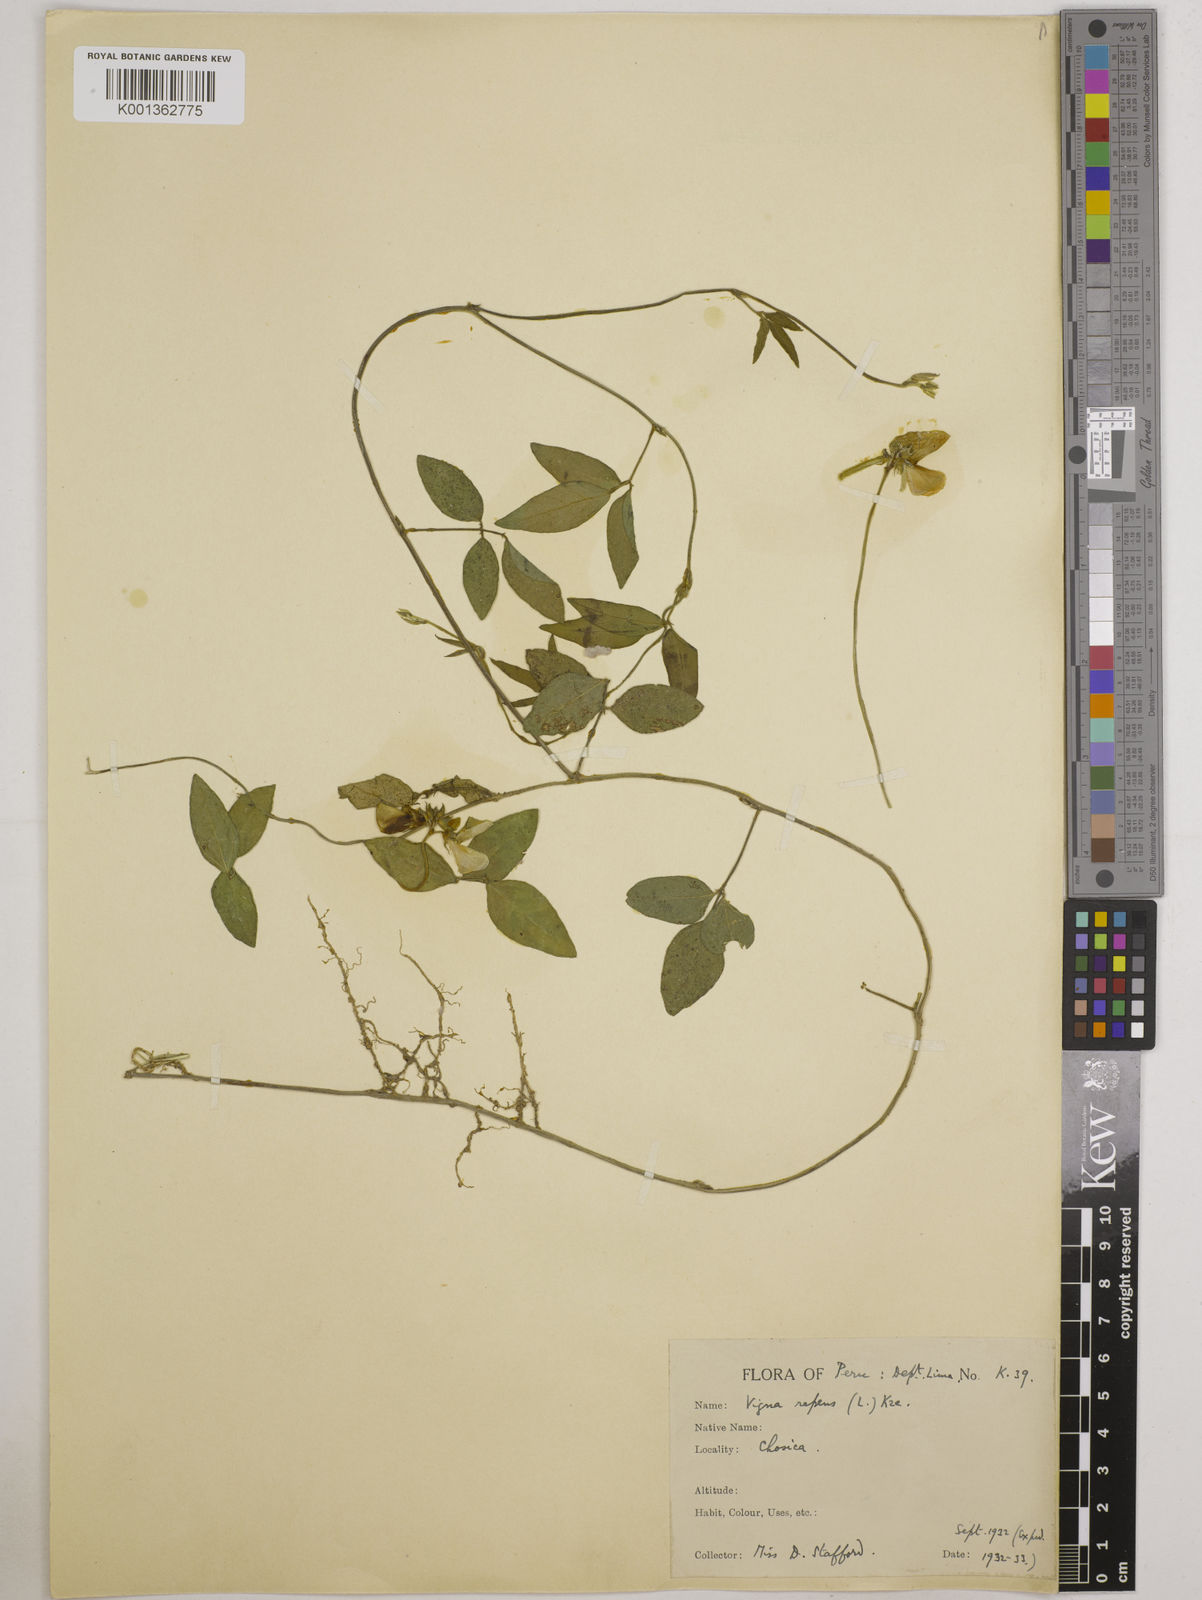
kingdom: Plantae
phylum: Tracheophyta
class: Magnoliopsida
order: Fabales
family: Fabaceae
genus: Vigna
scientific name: Vigna luteola
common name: Hairypod cowpea
